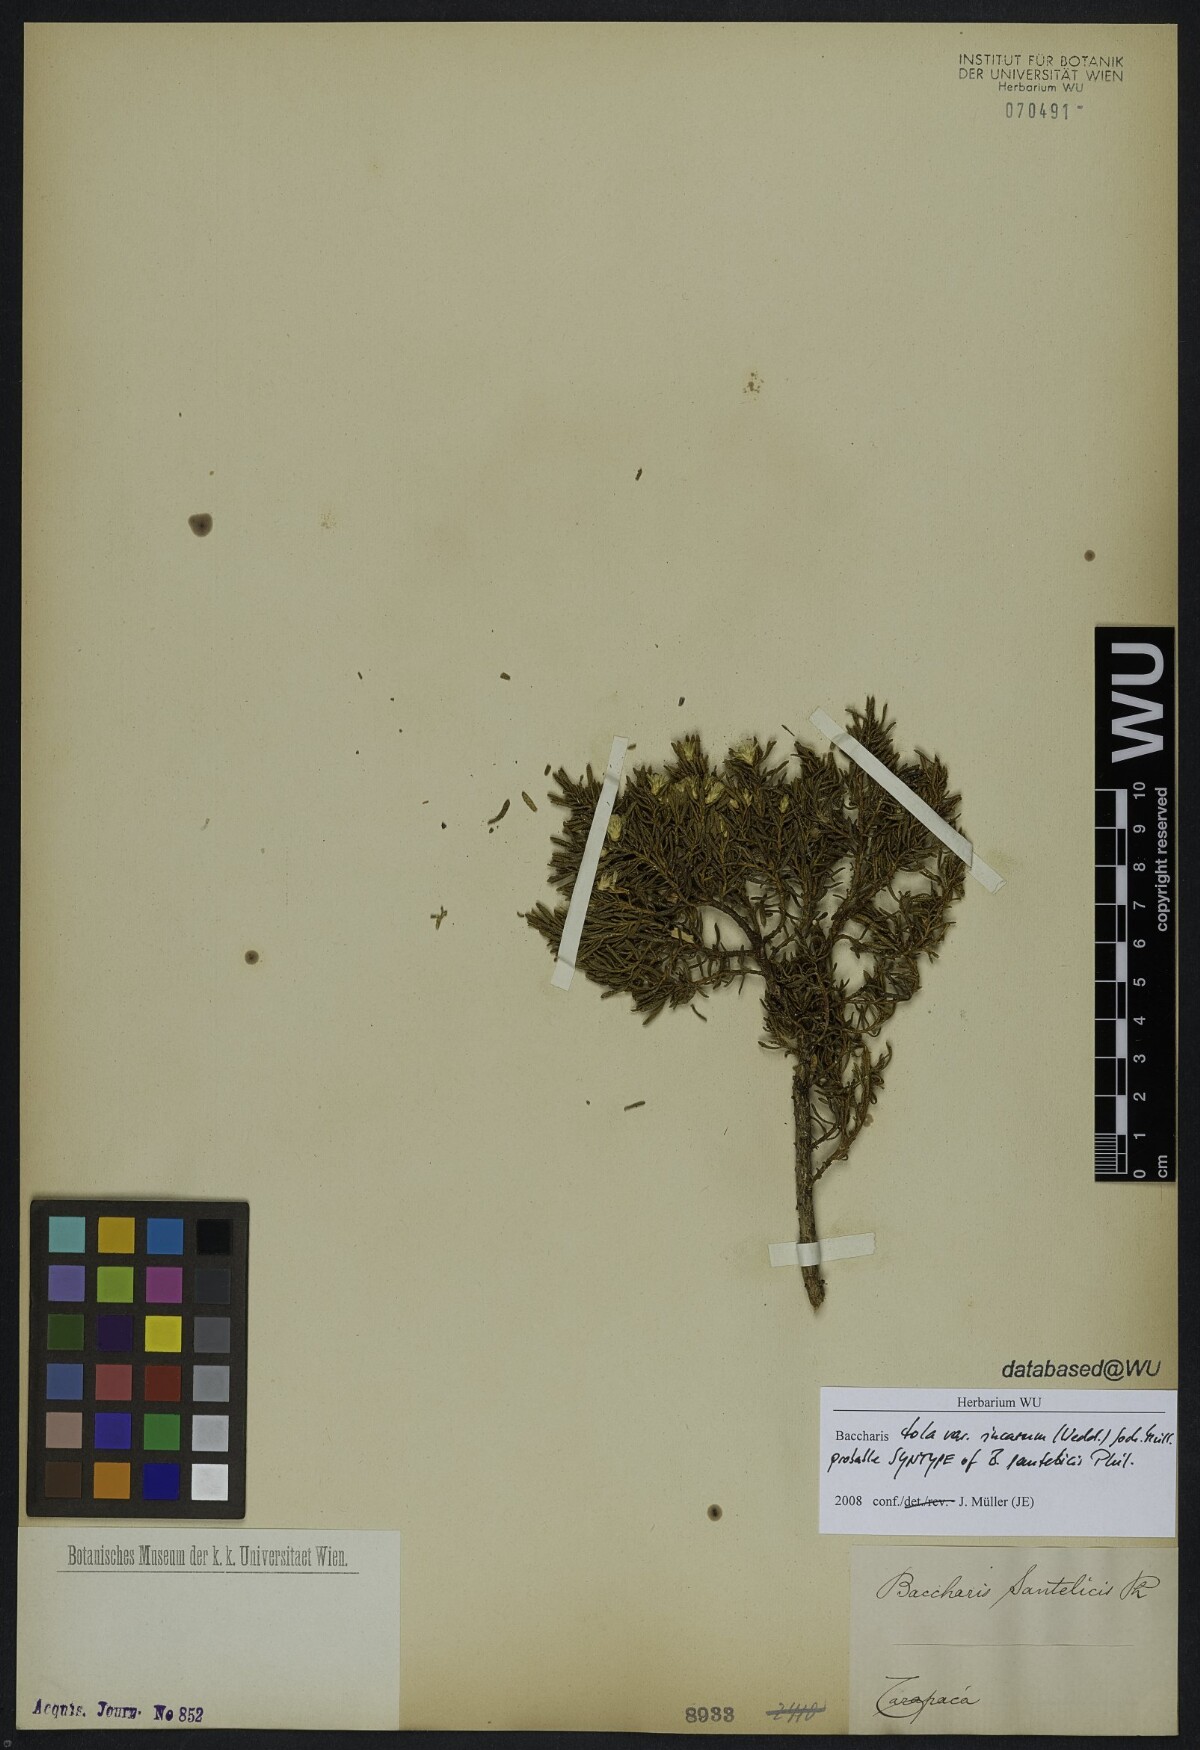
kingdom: Plantae
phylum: Tracheophyta
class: Magnoliopsida
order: Asterales
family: Asteraceae
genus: Baccharis
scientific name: Baccharis tola
